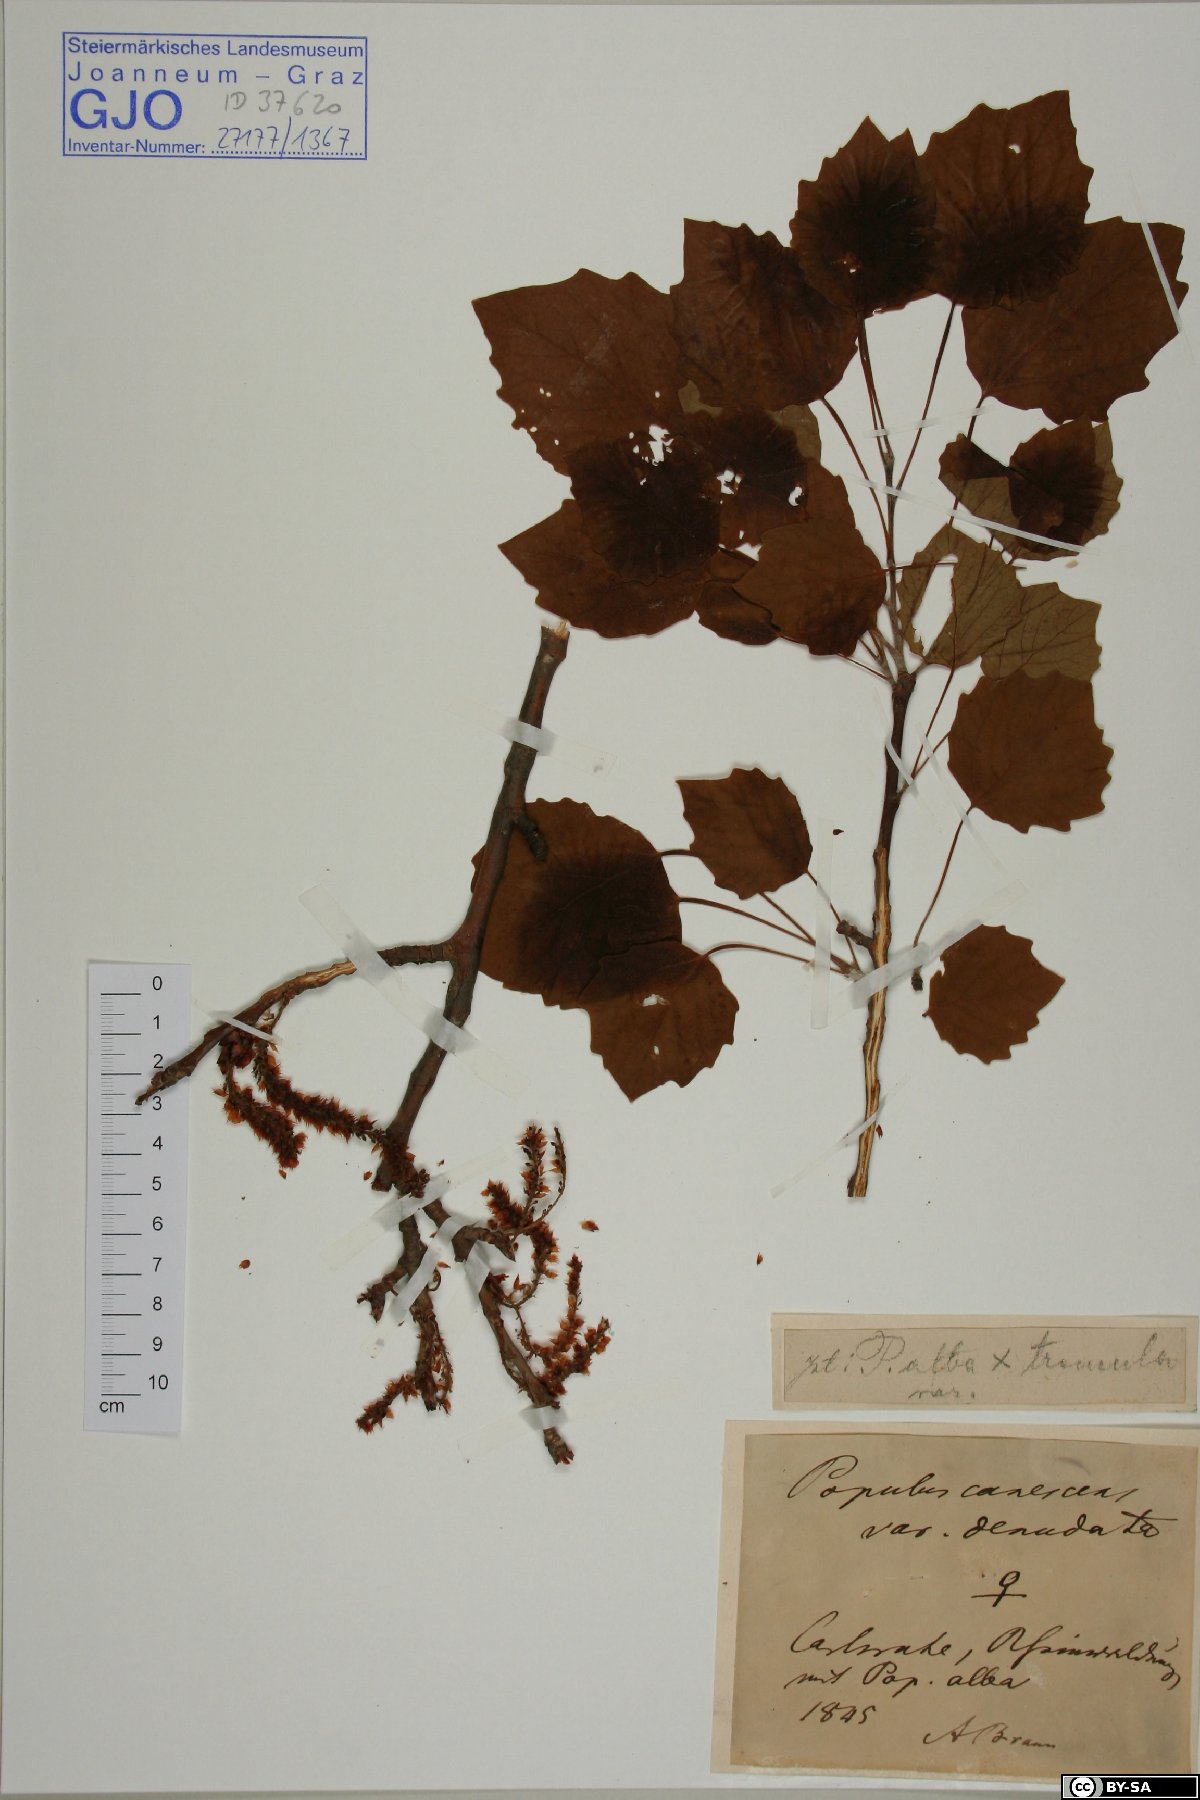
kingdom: Plantae
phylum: Tracheophyta
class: Magnoliopsida
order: Malpighiales
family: Salicaceae
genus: Populus
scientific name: Populus canescens
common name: Gray poplar
